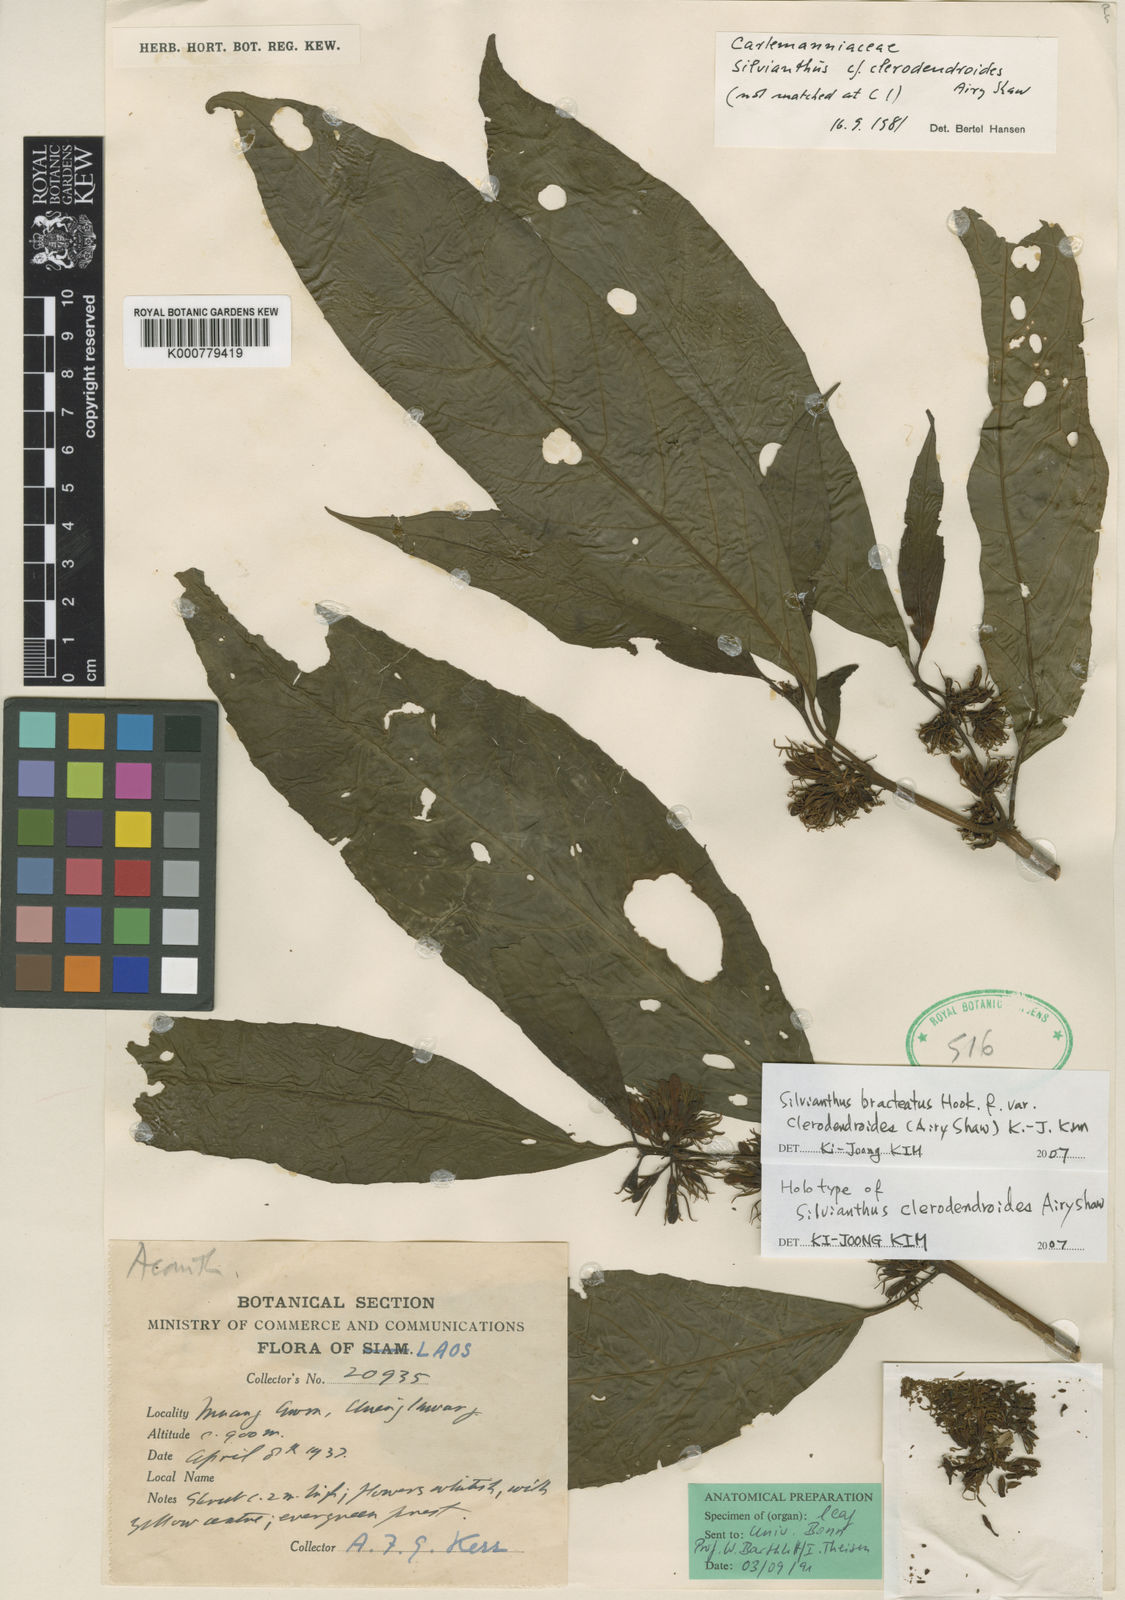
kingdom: Plantae
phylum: Tracheophyta
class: Magnoliopsida
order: Lamiales
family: Carlemanniaceae
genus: Silvianthus
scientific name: Silvianthus bracteatus
